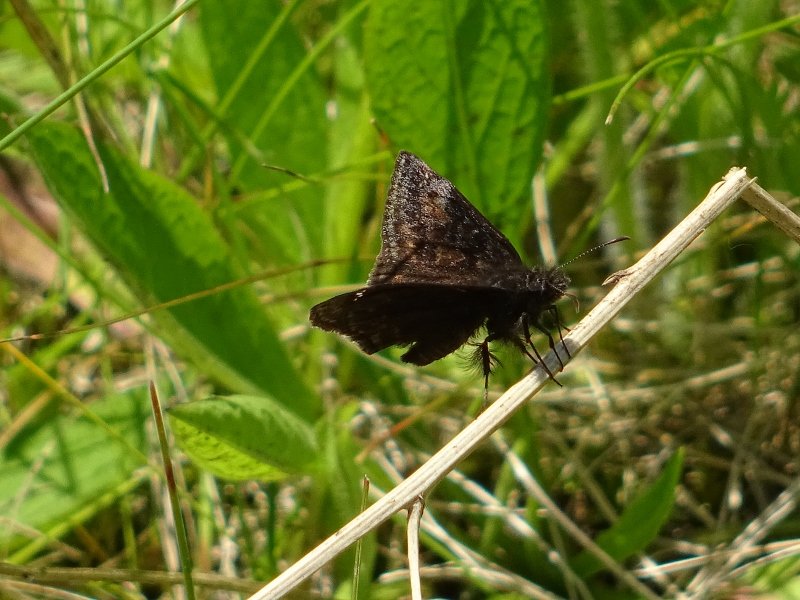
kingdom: Animalia
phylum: Arthropoda
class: Insecta
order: Lepidoptera
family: Hesperiidae
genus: Gesta
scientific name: Gesta
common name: Wild Indigo Duskywing
